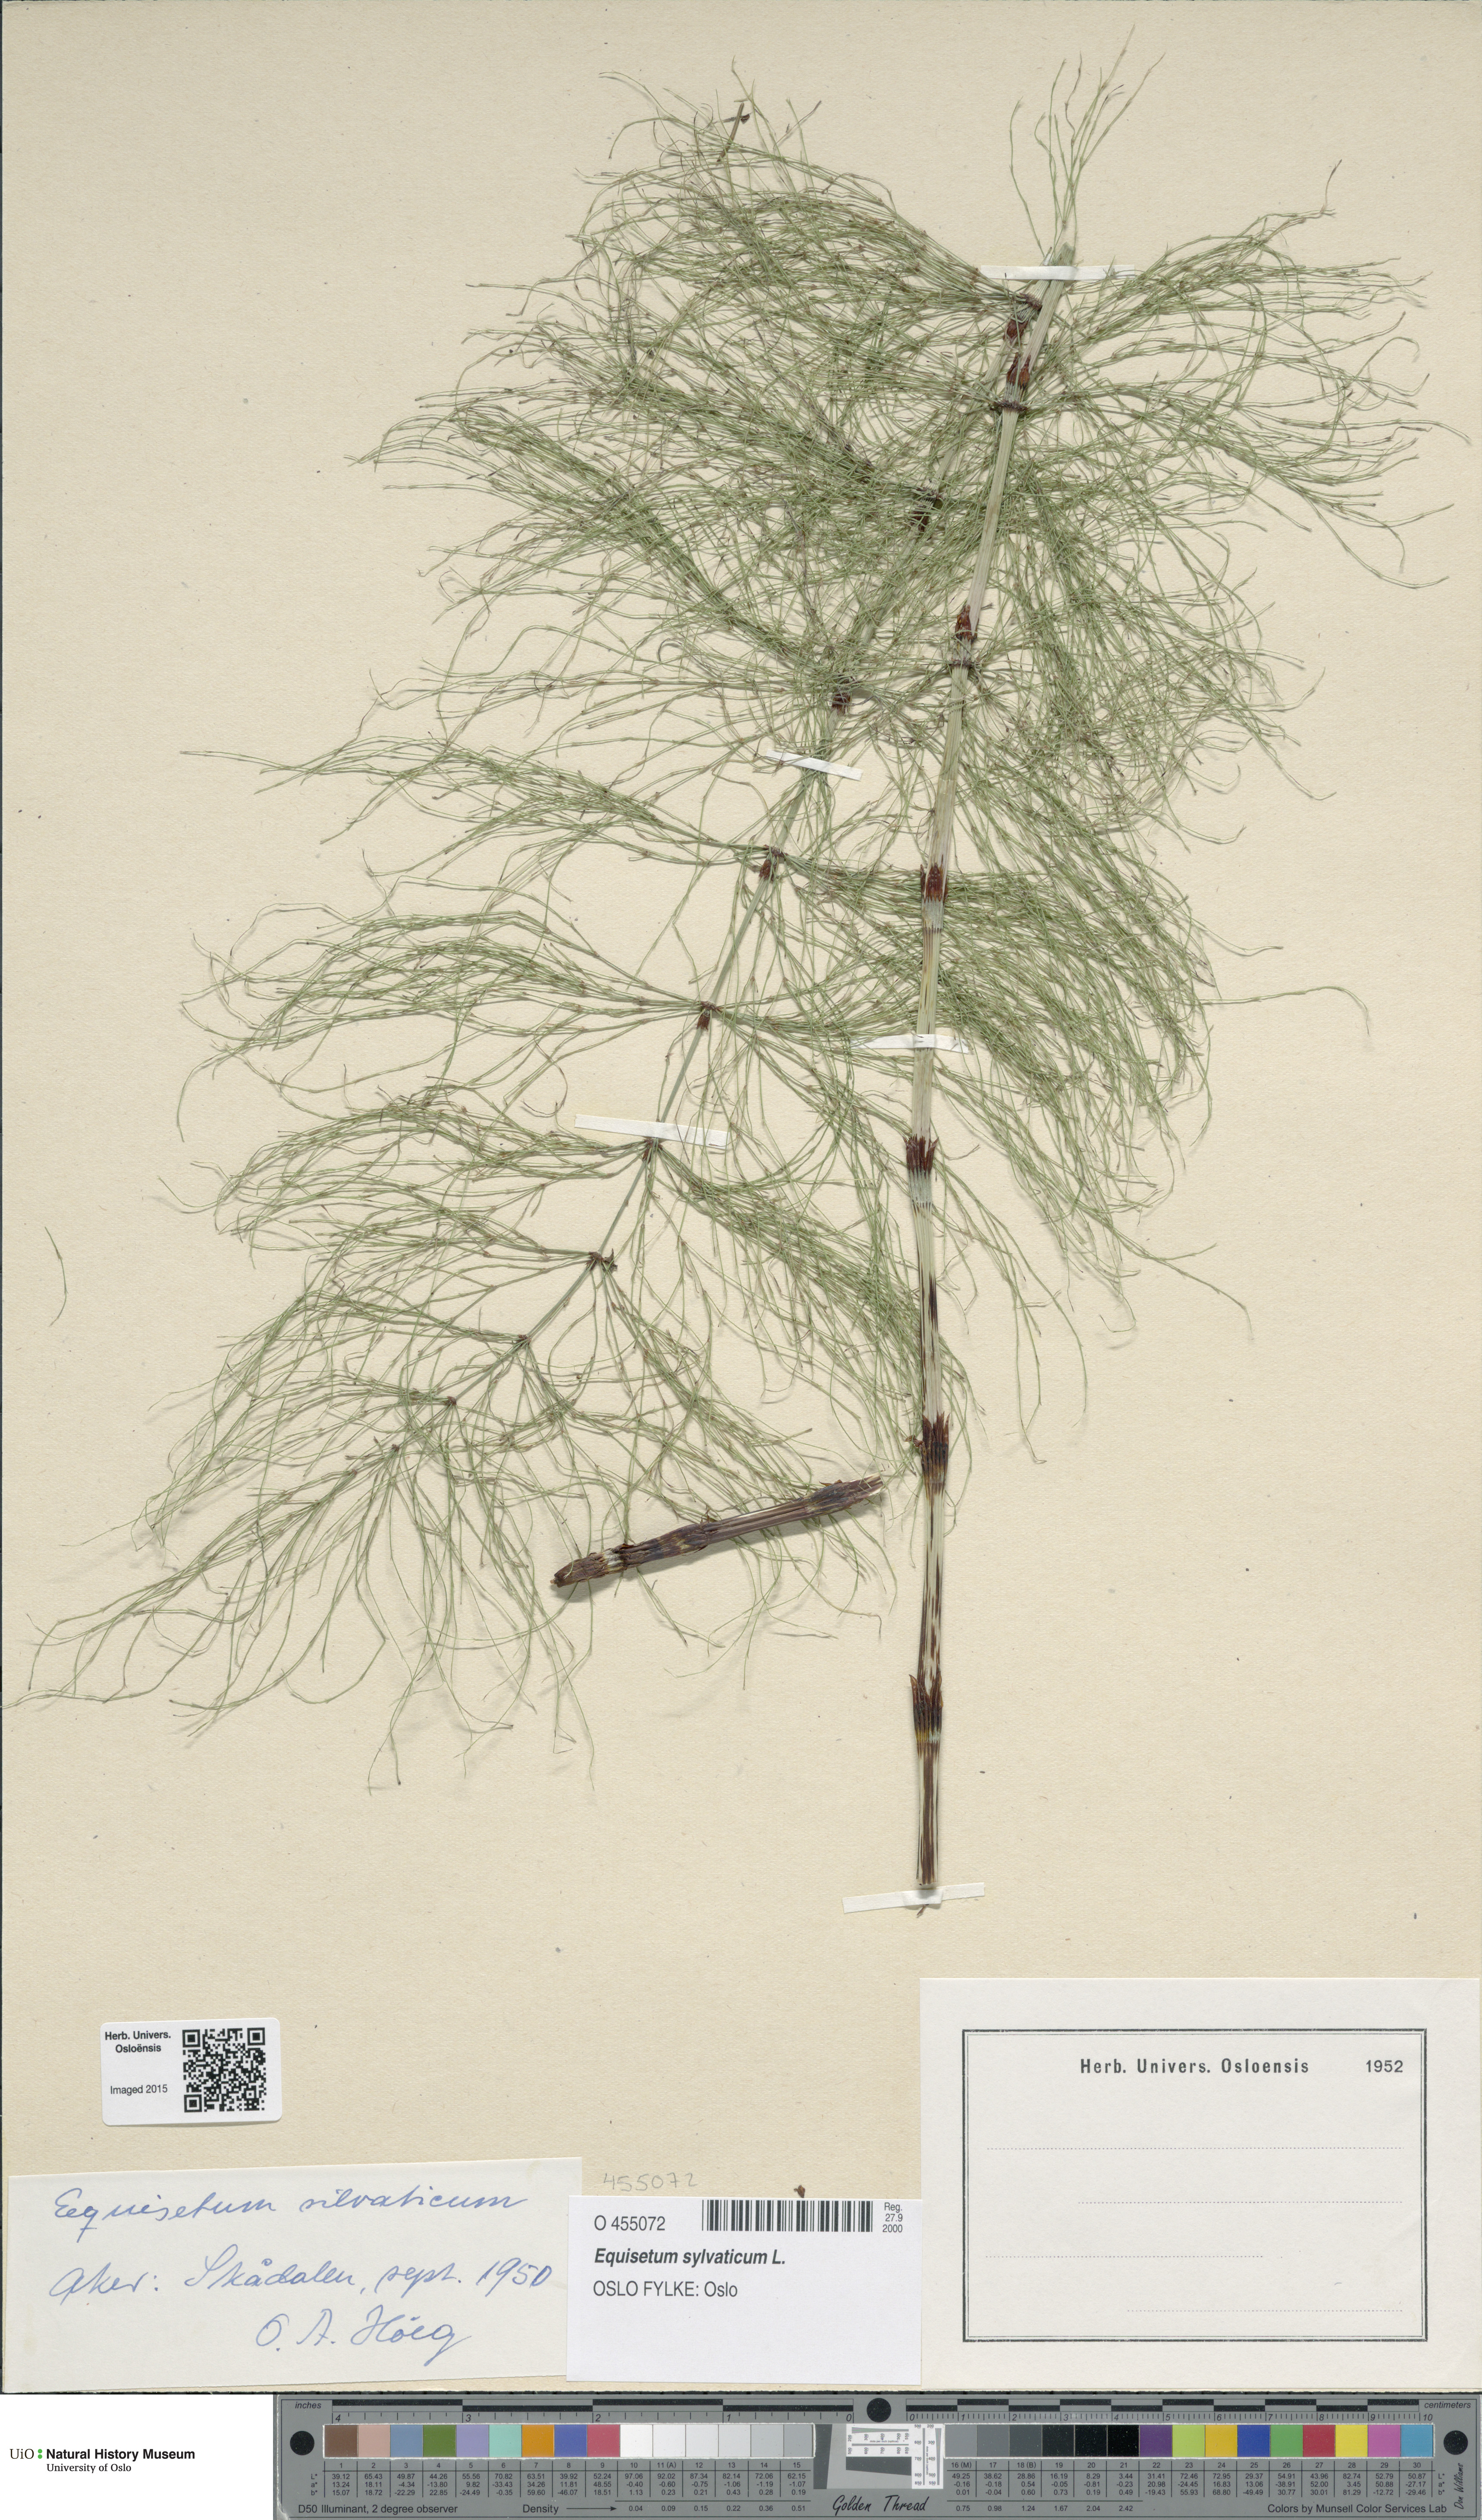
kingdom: Plantae
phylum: Tracheophyta
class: Polypodiopsida
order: Equisetales
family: Equisetaceae
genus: Equisetum
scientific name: Equisetum sylvaticum
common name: Wood horsetail
